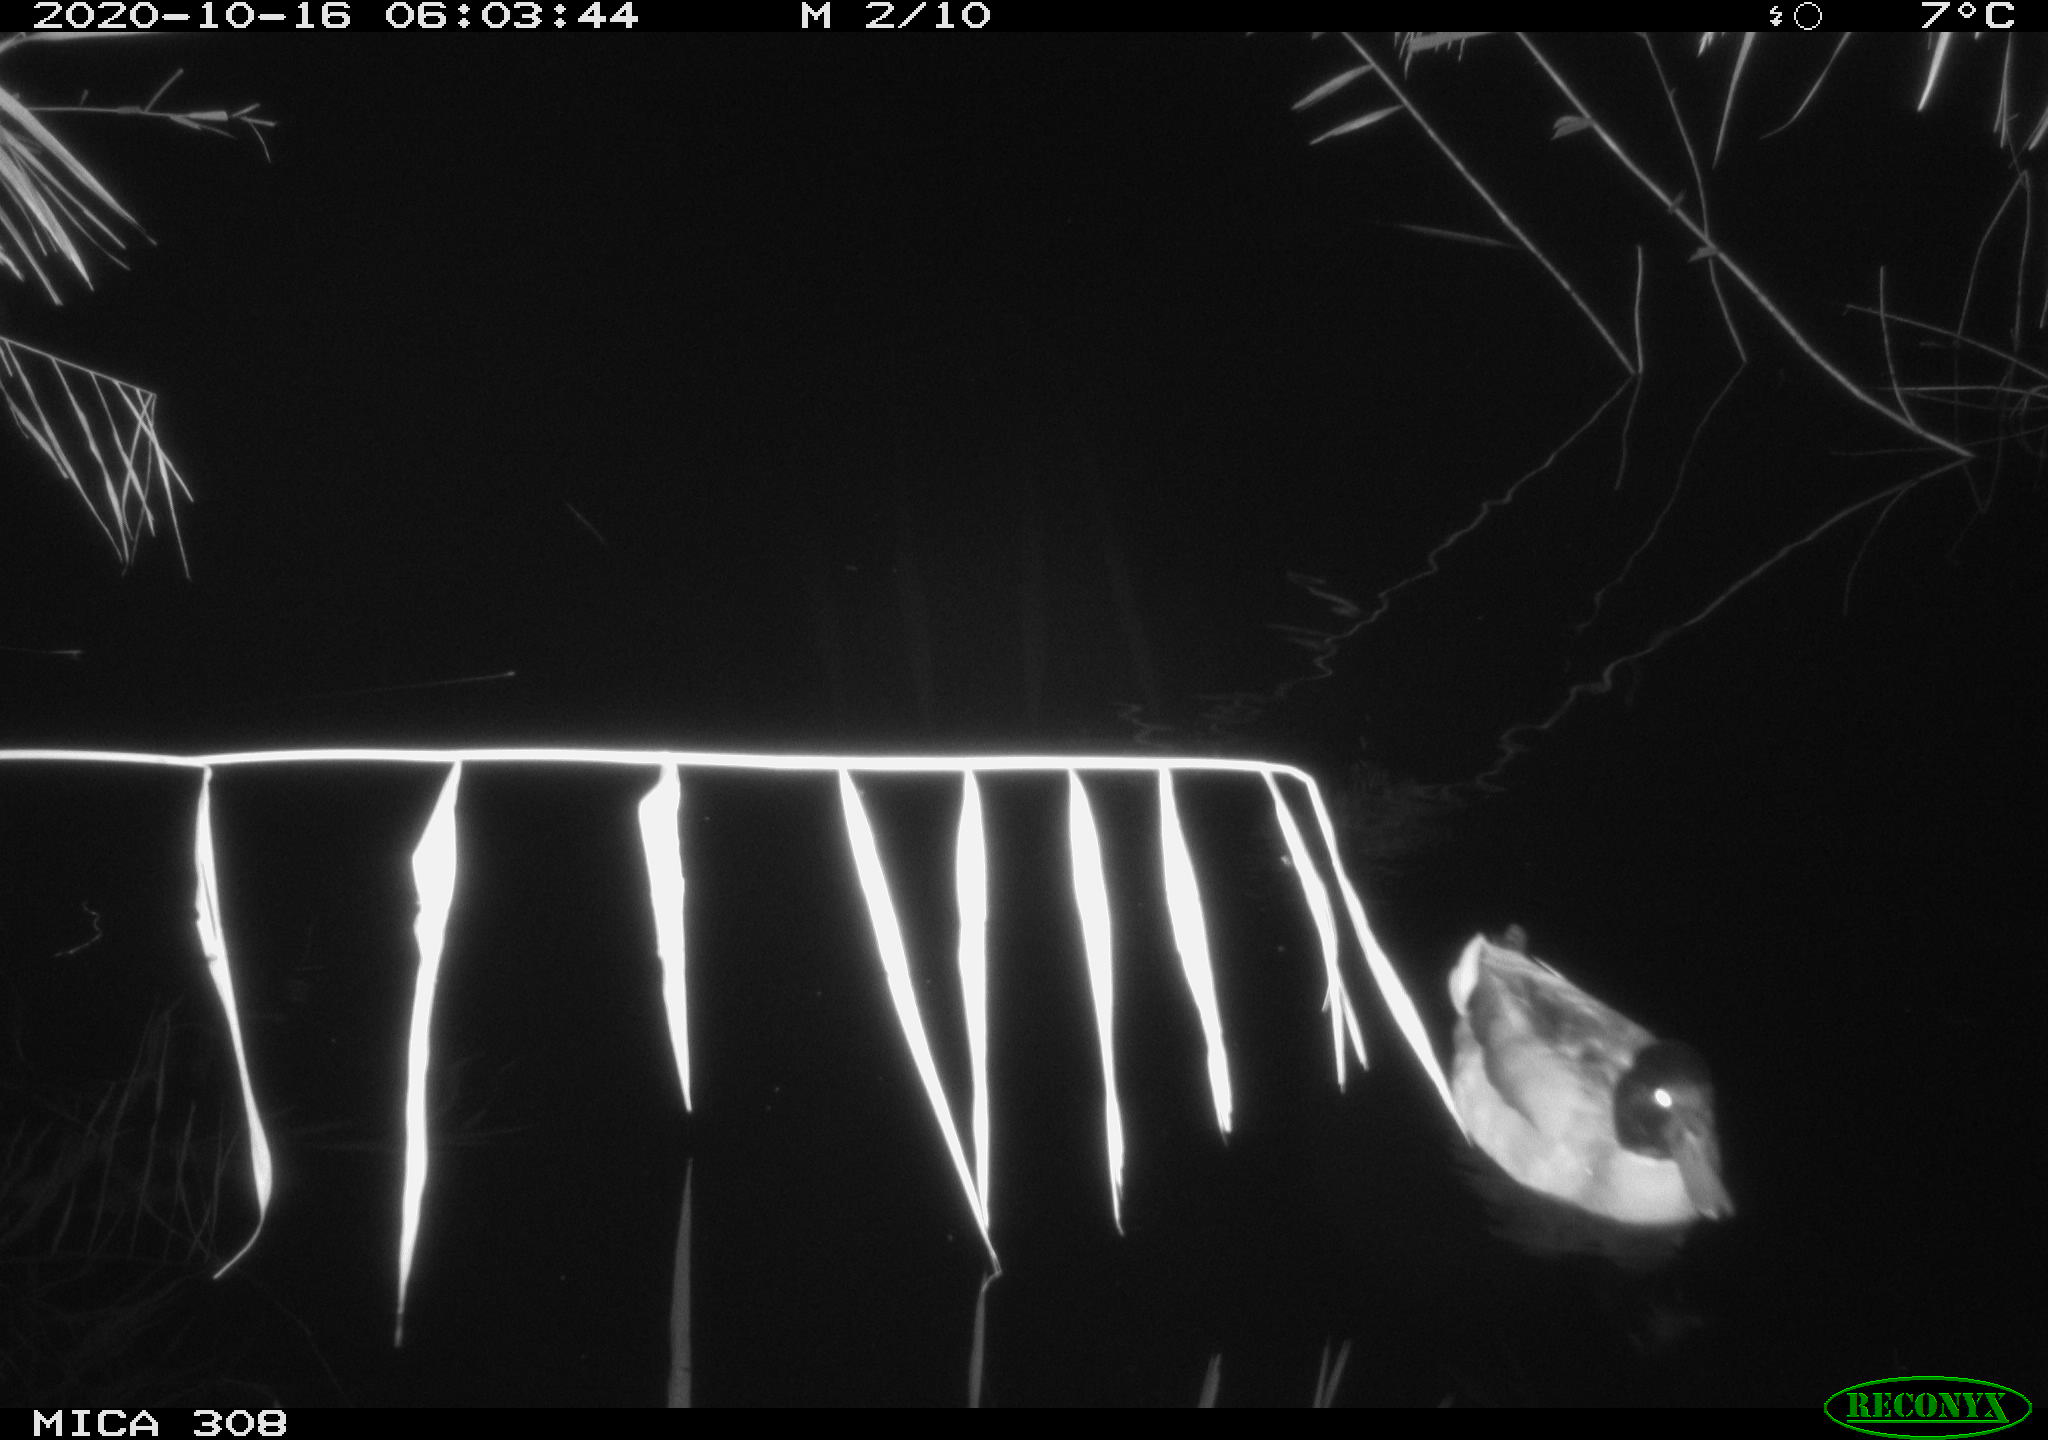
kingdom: Animalia
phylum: Chordata
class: Aves
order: Anseriformes
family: Anatidae
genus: Anas
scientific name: Anas platyrhynchos
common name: Mallard
